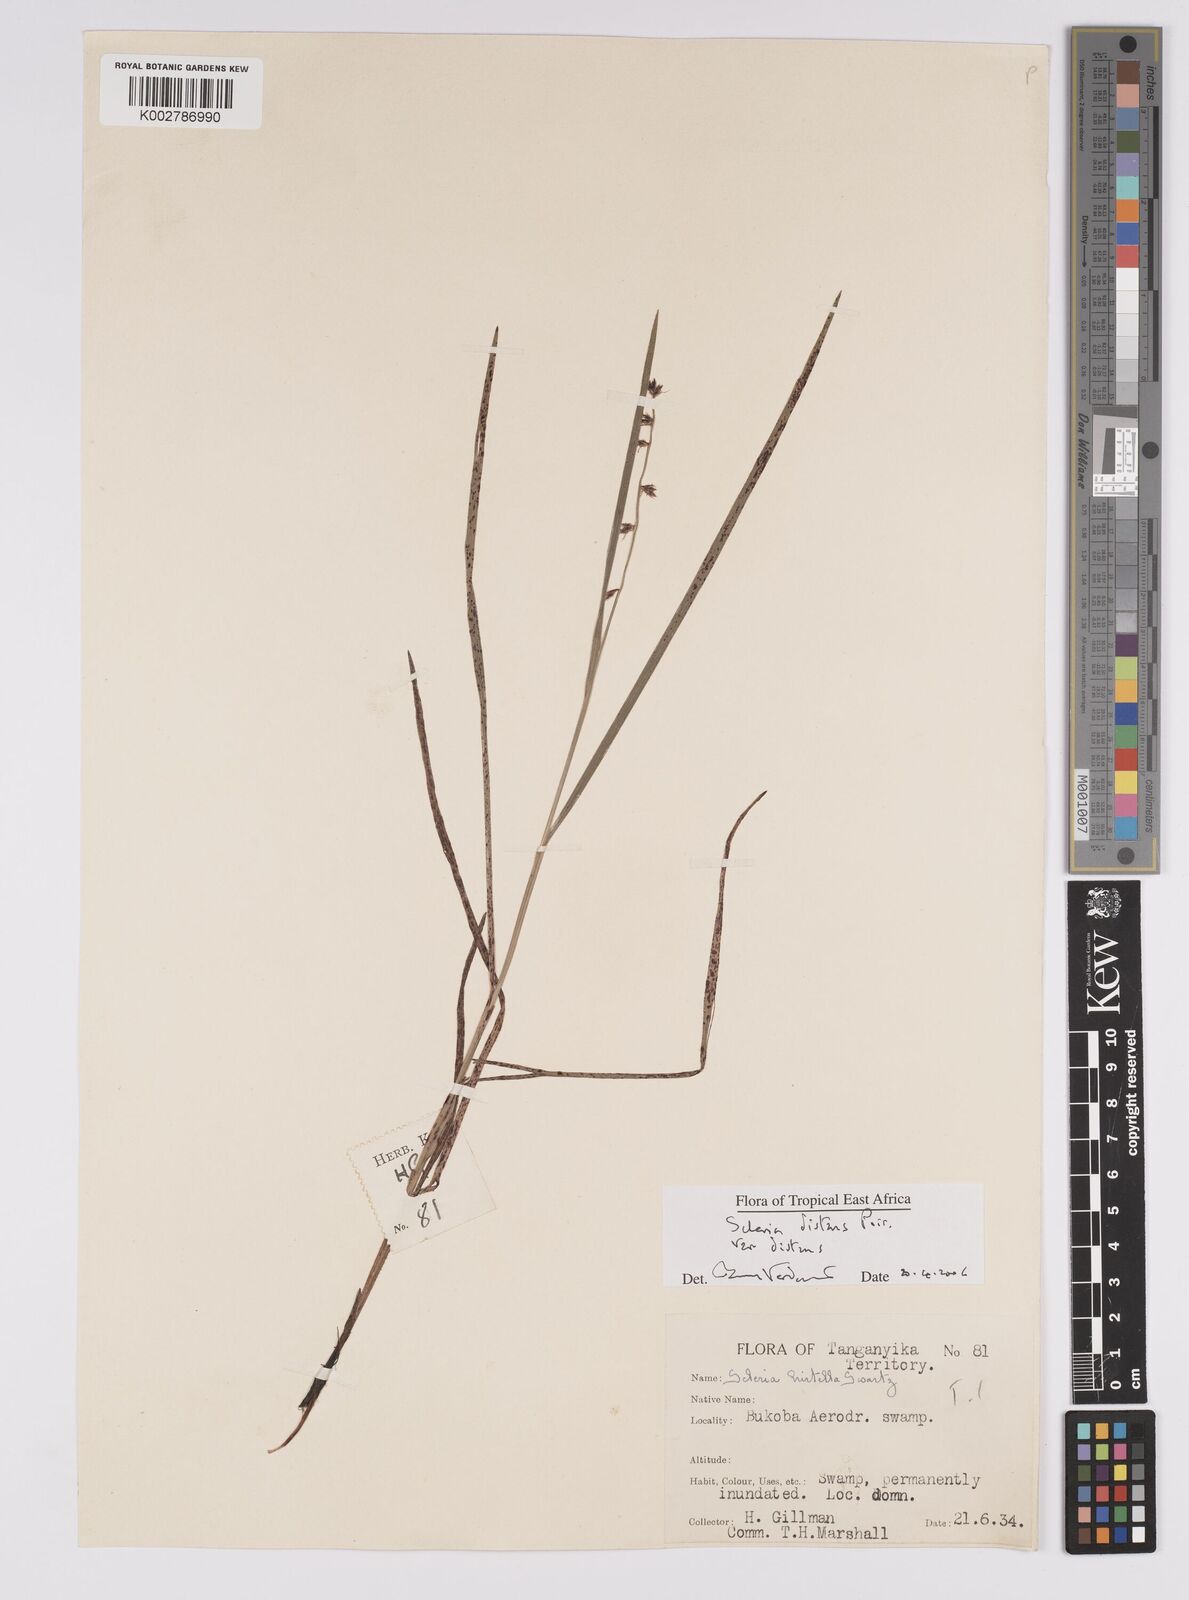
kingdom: Plantae
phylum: Tracheophyta
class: Liliopsida
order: Poales
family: Cyperaceae
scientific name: Cyperaceae
